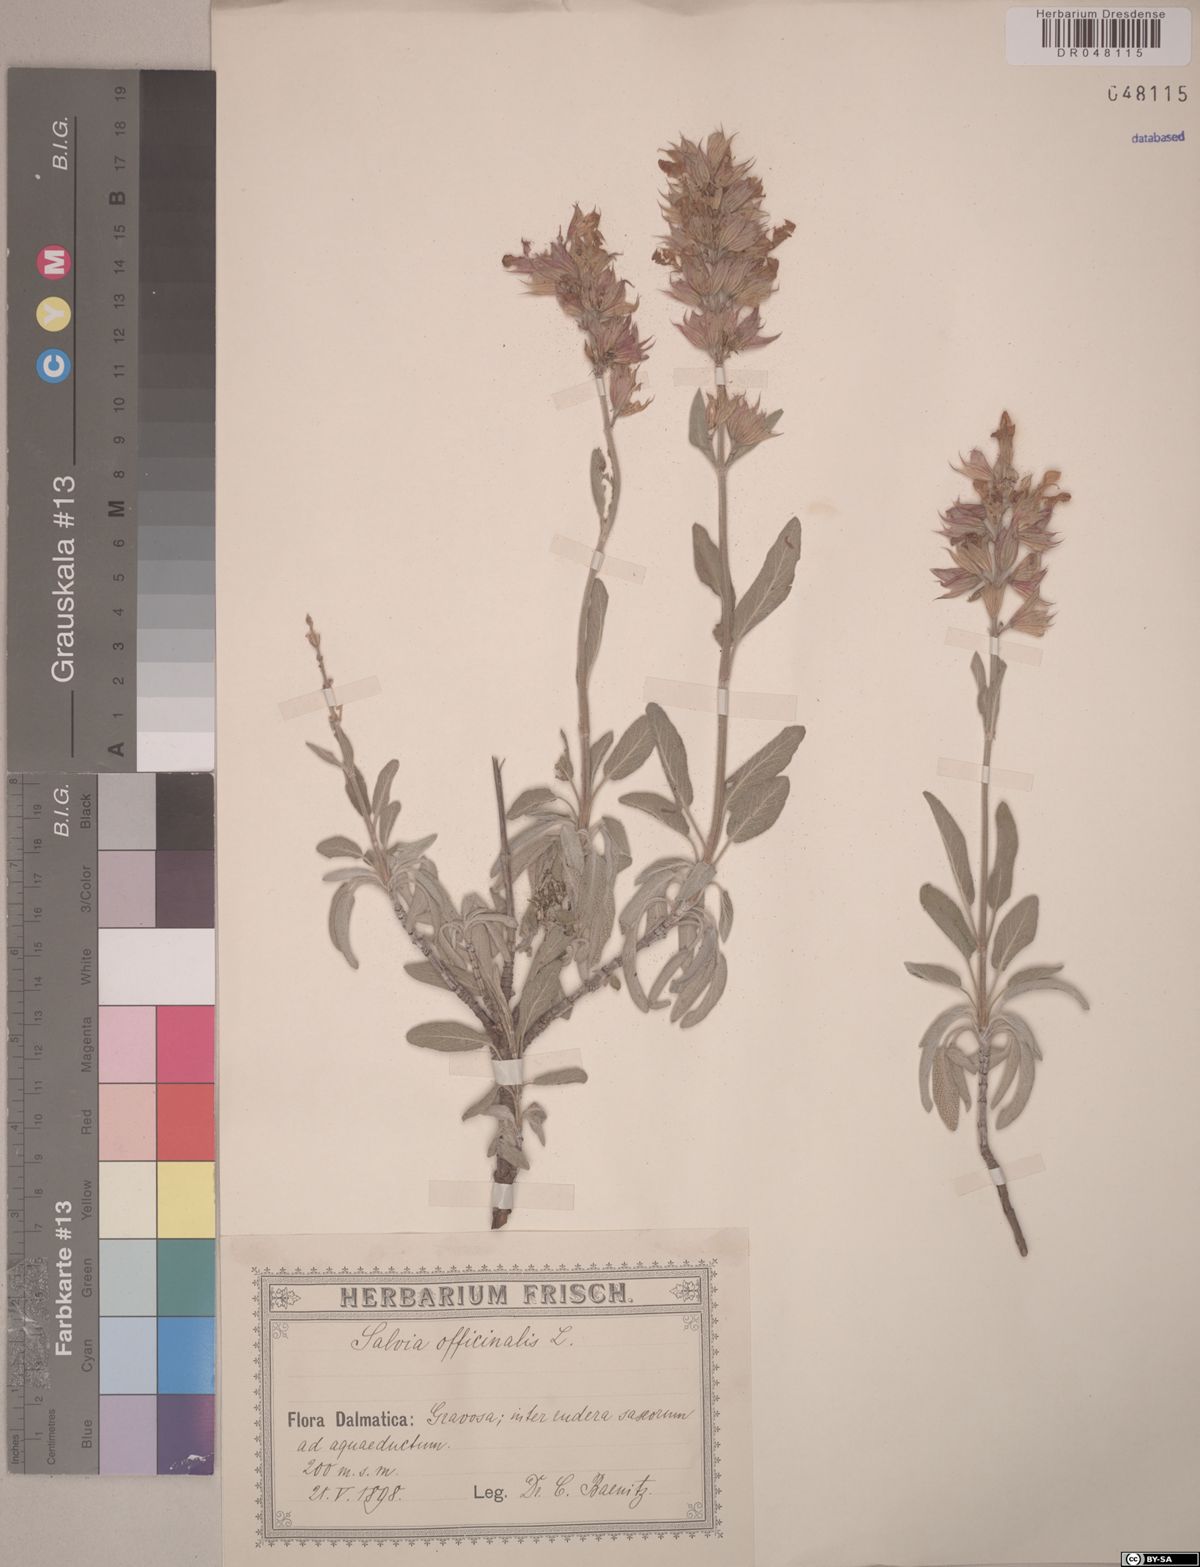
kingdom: Plantae
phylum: Tracheophyta
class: Magnoliopsida
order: Lamiales
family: Lamiaceae
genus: Salvia
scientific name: Salvia officinalis
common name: Sage
